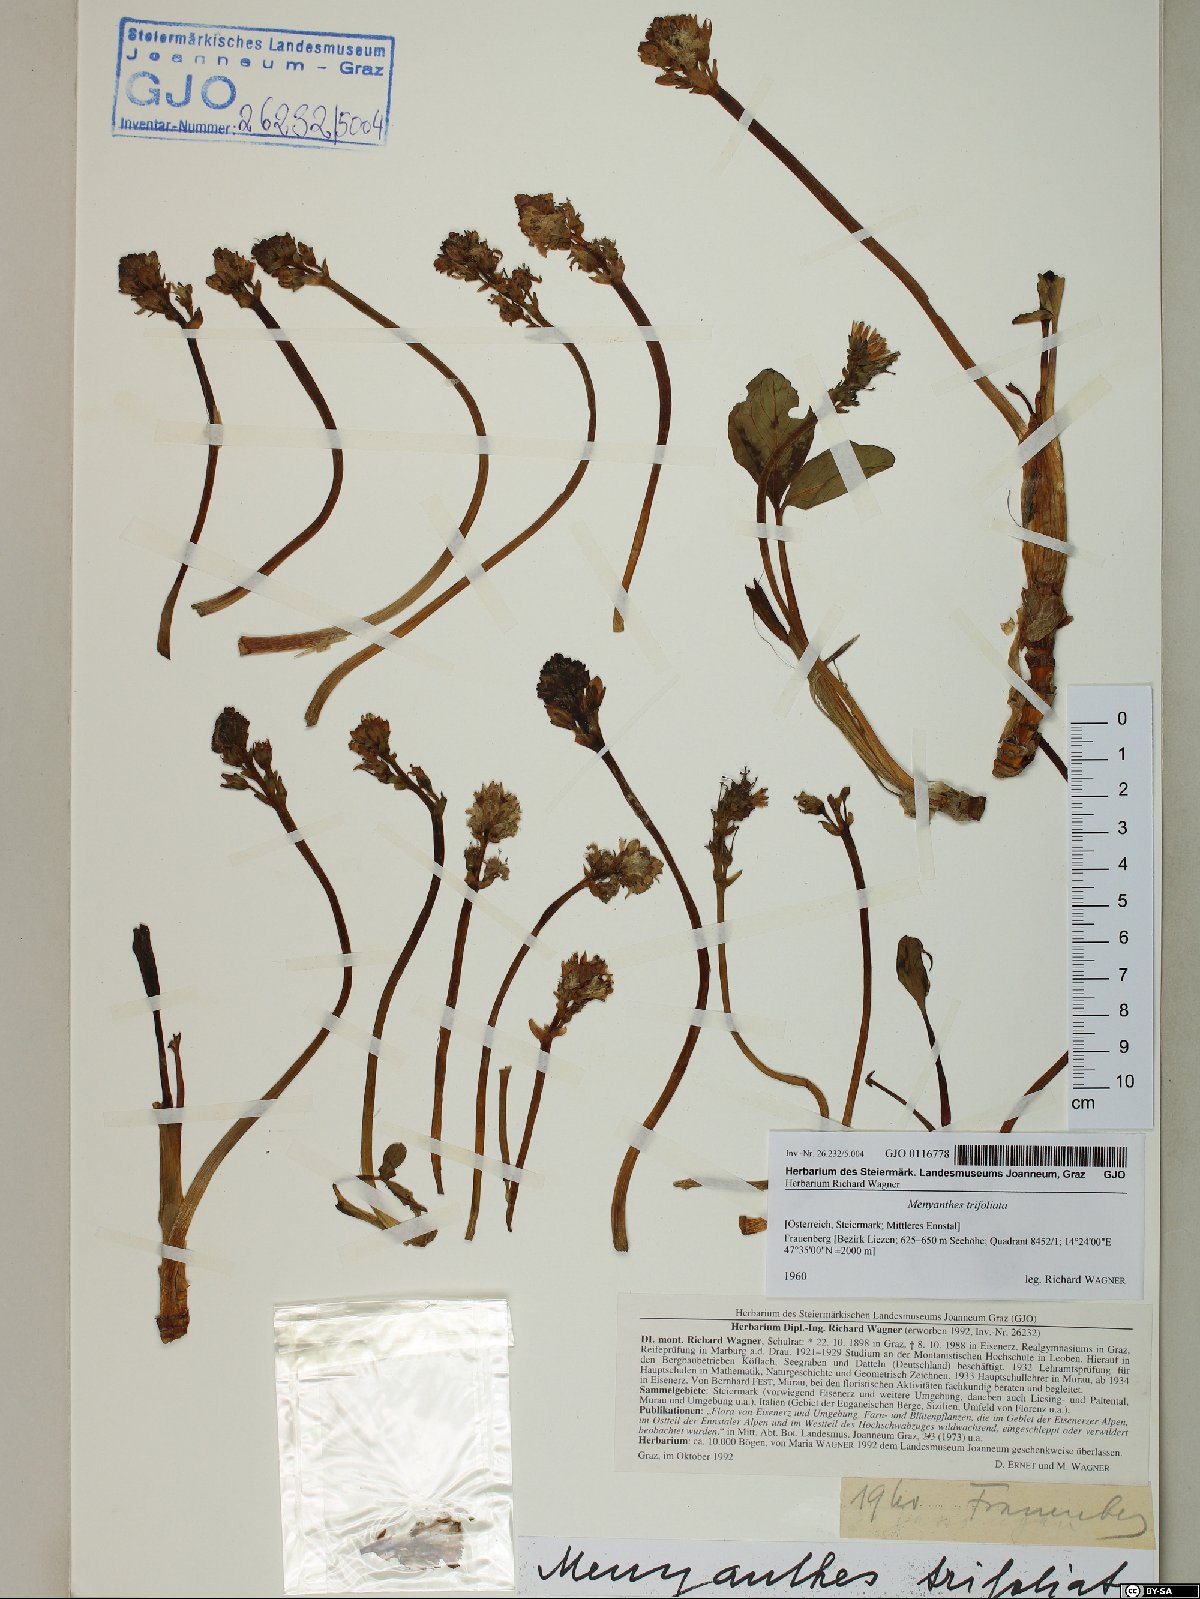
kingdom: Plantae
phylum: Tracheophyta
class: Magnoliopsida
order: Asterales
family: Menyanthaceae
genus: Menyanthes
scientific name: Menyanthes trifoliata
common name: Bogbean
